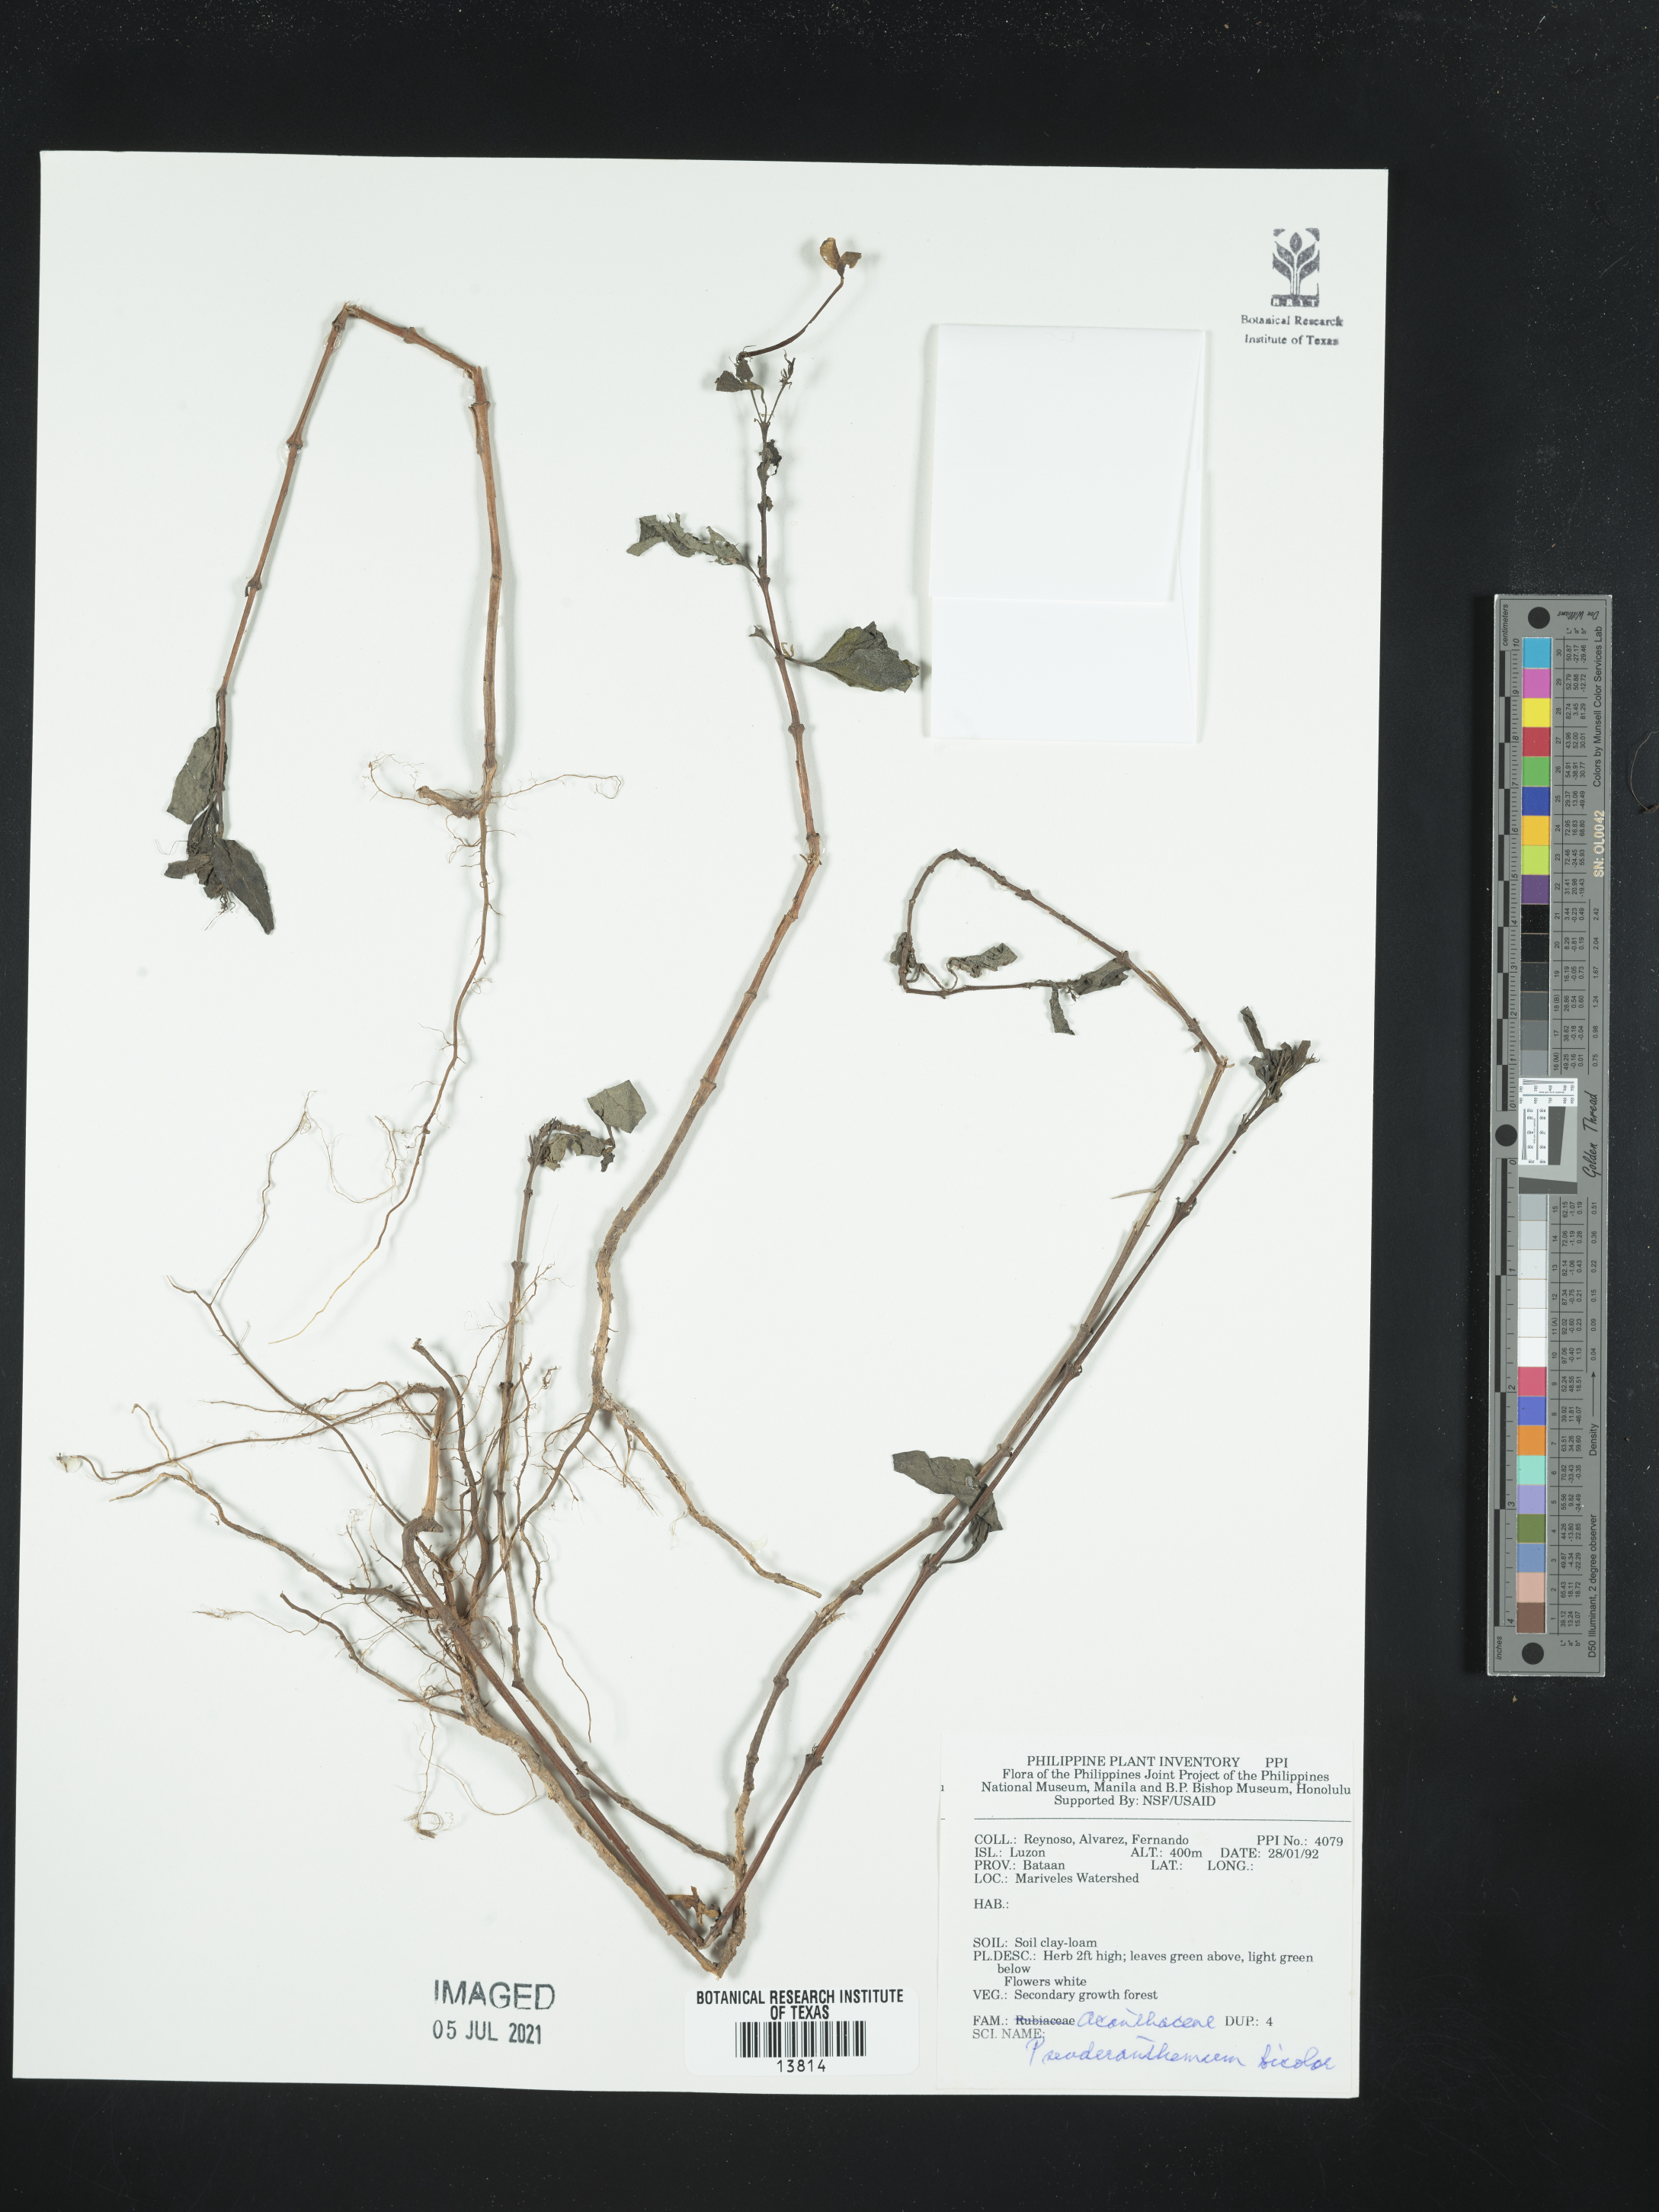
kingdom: Plantae
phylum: Tracheophyta
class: Magnoliopsida
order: Lamiales
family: Acanthaceae
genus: Pseuderanthemum
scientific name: Pseuderanthemum bicolor
